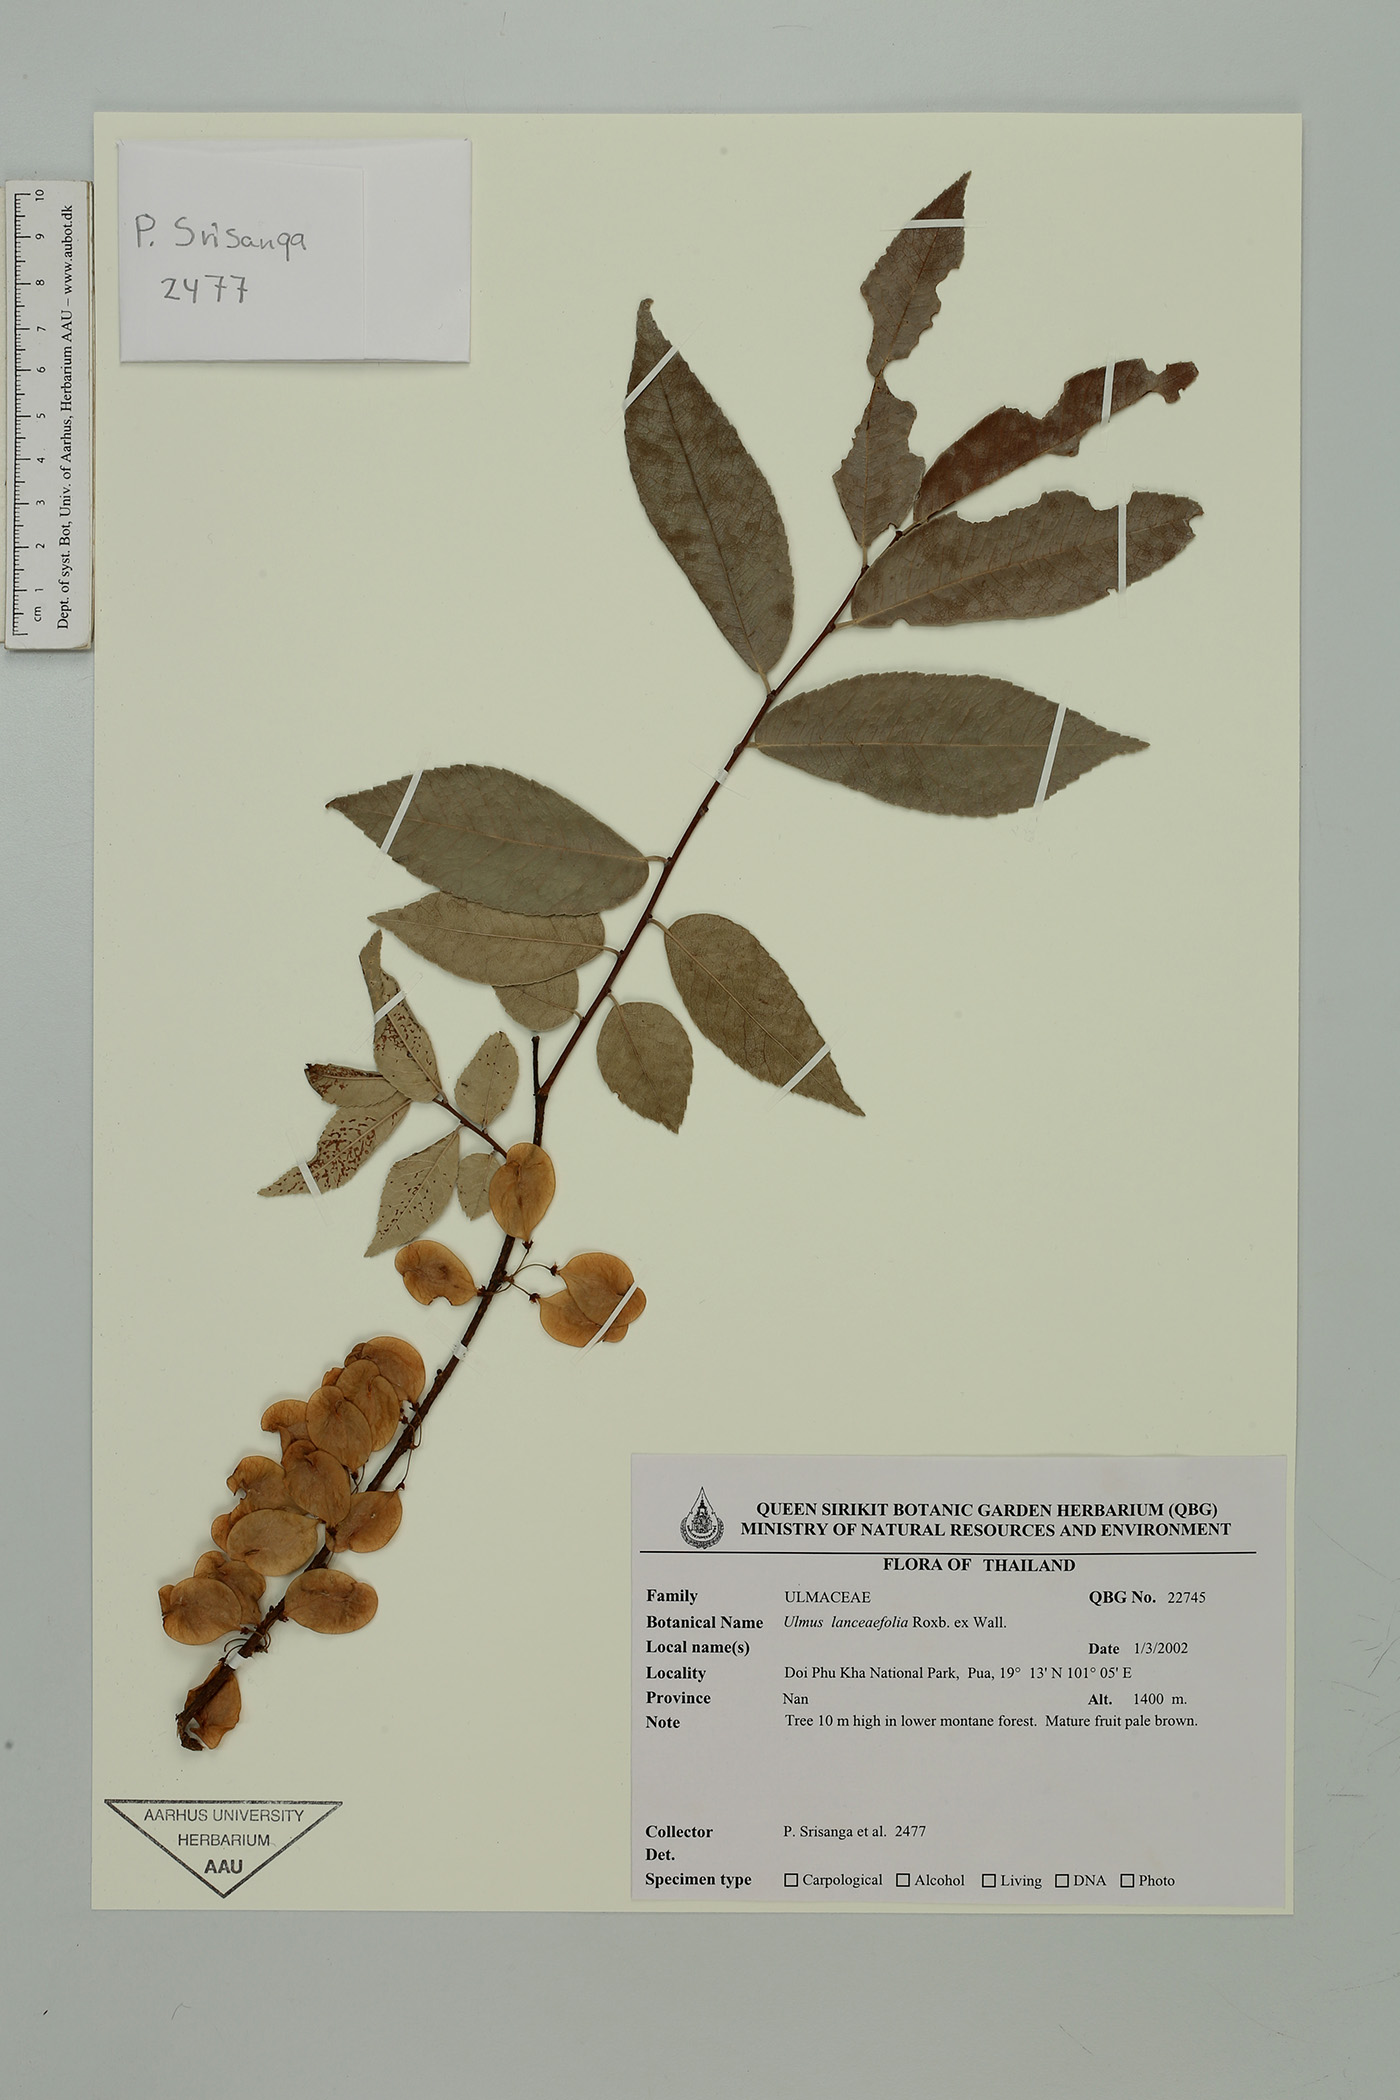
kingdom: Plantae
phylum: Tracheophyta
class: Magnoliopsida
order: Rosales
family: Ulmaceae
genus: Ulmus
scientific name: Ulmus lanceifolia
